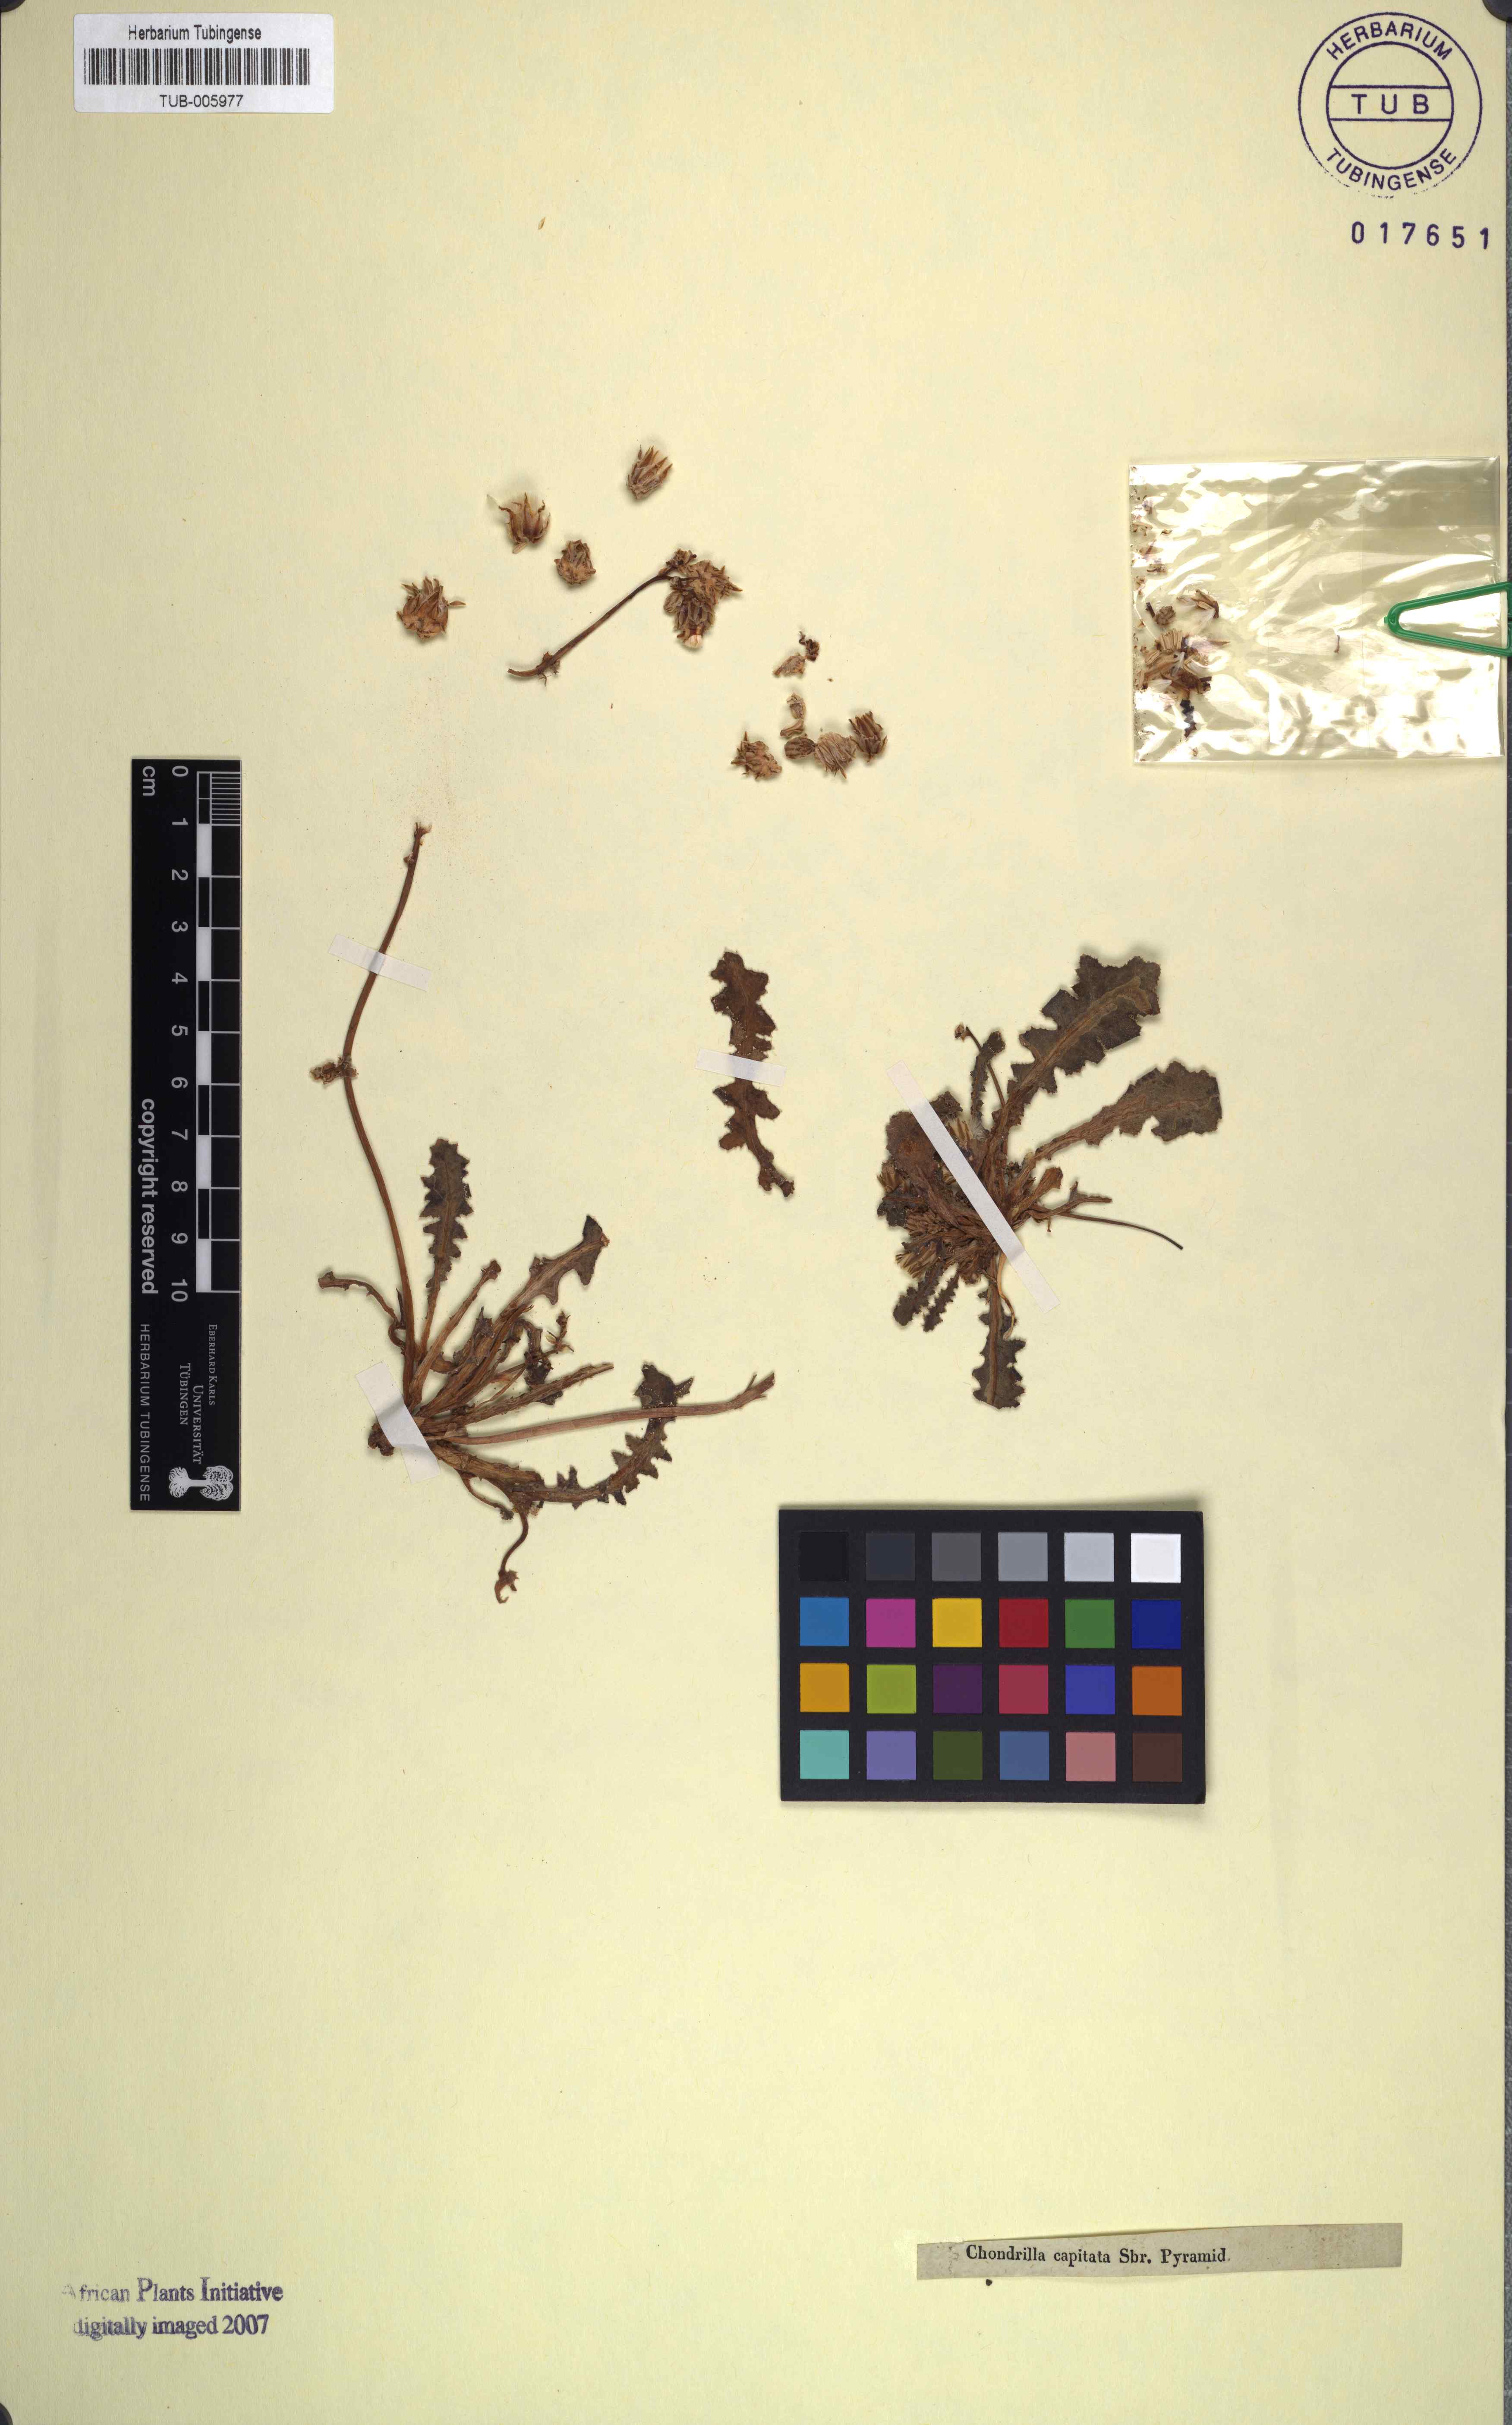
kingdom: Plantae
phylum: Tracheophyta
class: Magnoliopsida
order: Asterales
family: Asteraceae
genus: Launaea
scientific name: Launaea capitata
